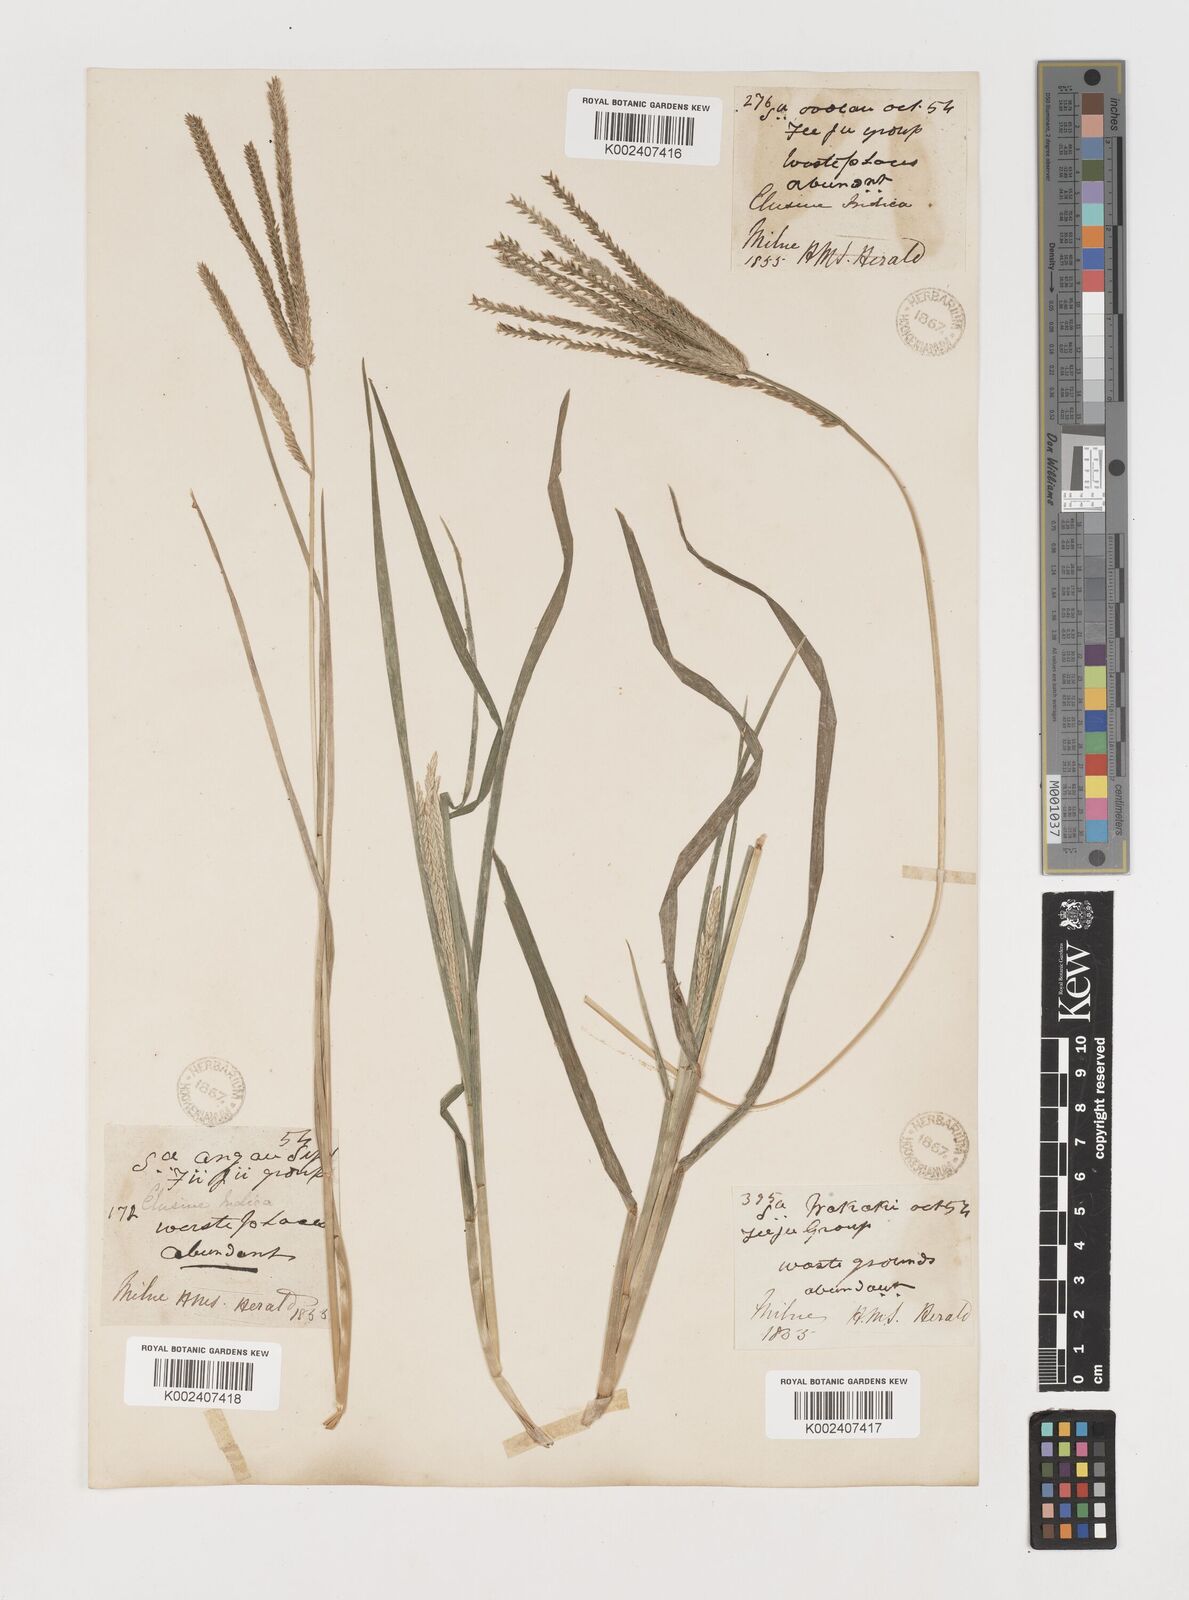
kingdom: Plantae
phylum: Tracheophyta
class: Liliopsida
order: Poales
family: Poaceae
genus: Eleusine
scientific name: Eleusine indica
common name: Yard-grass
